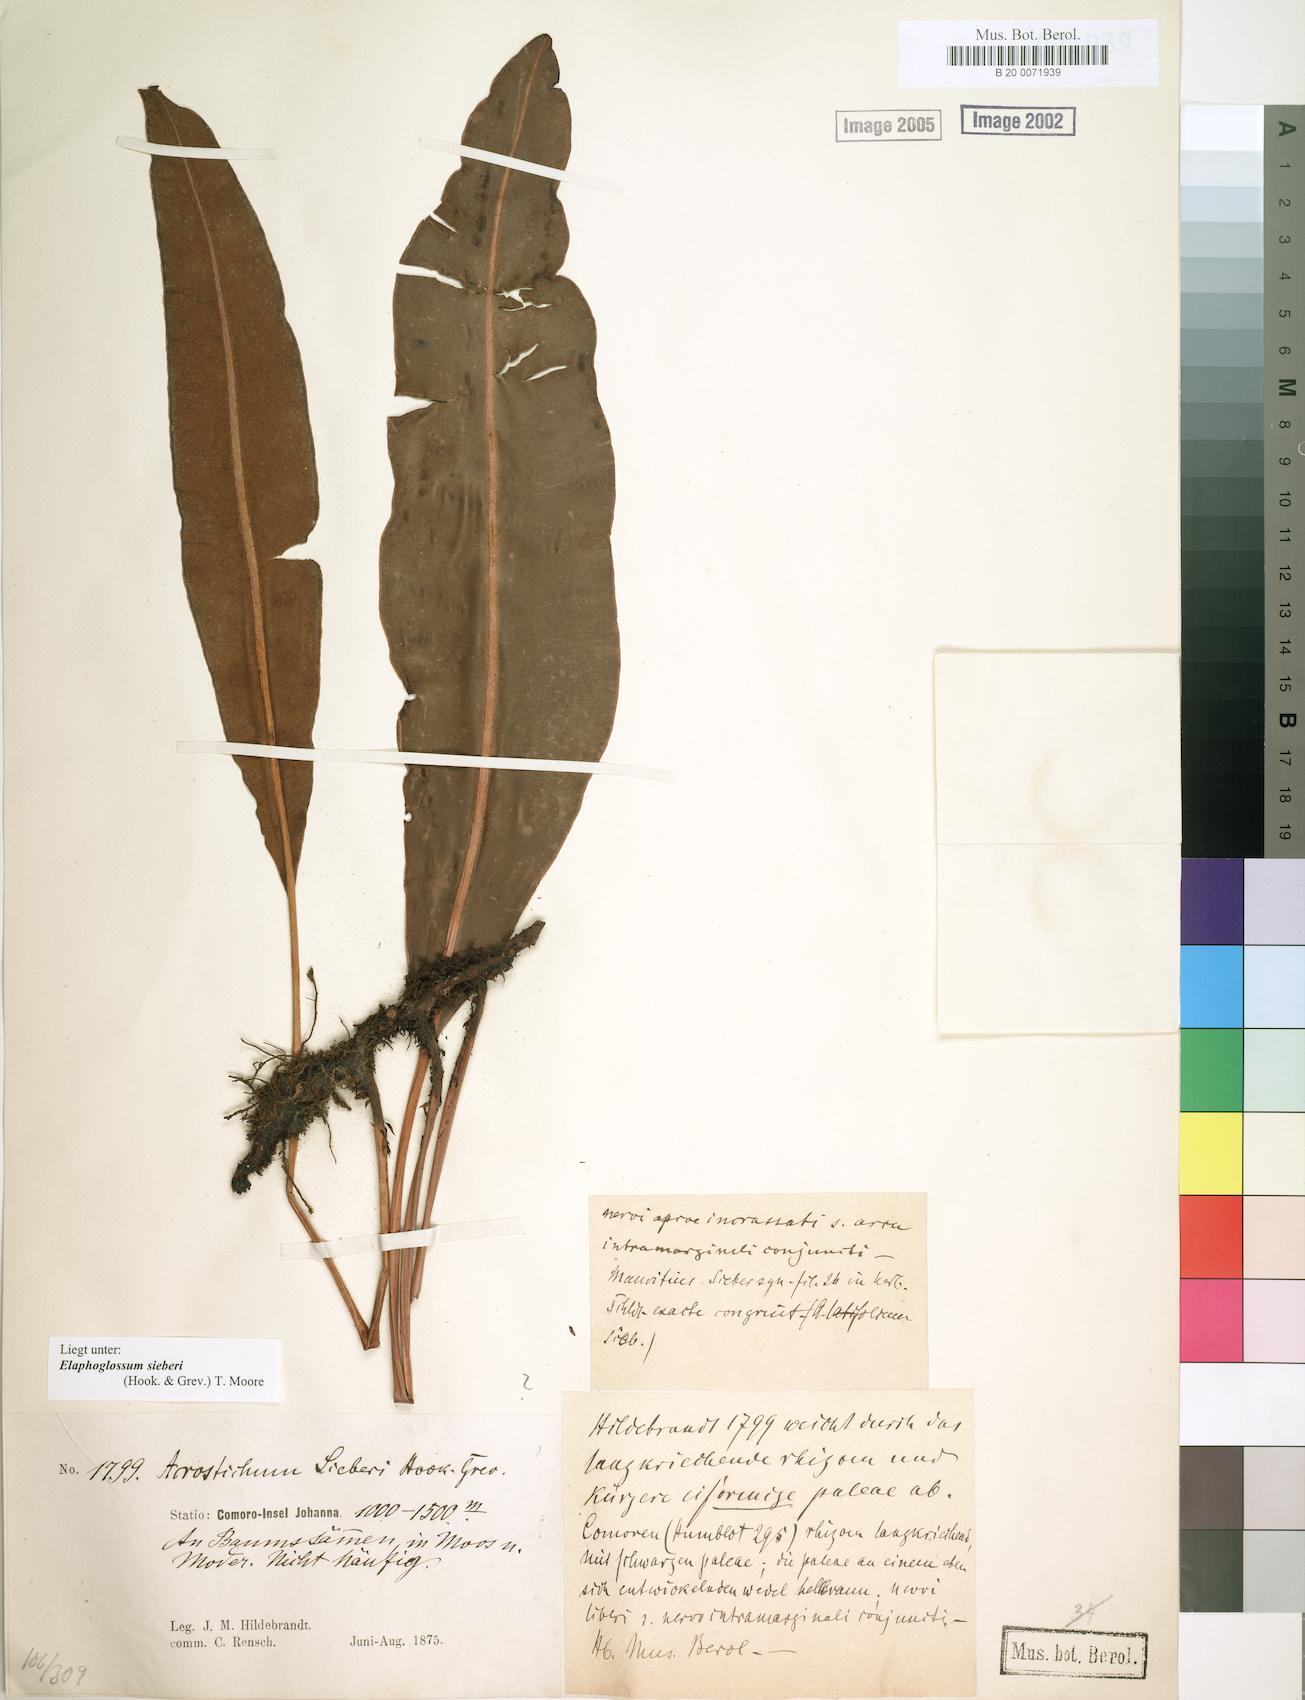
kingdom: Plantae
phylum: Tracheophyta
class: Polypodiopsida
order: Polypodiales
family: Dryopteridaceae
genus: Elaphoglossum
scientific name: Elaphoglossum sieberi
